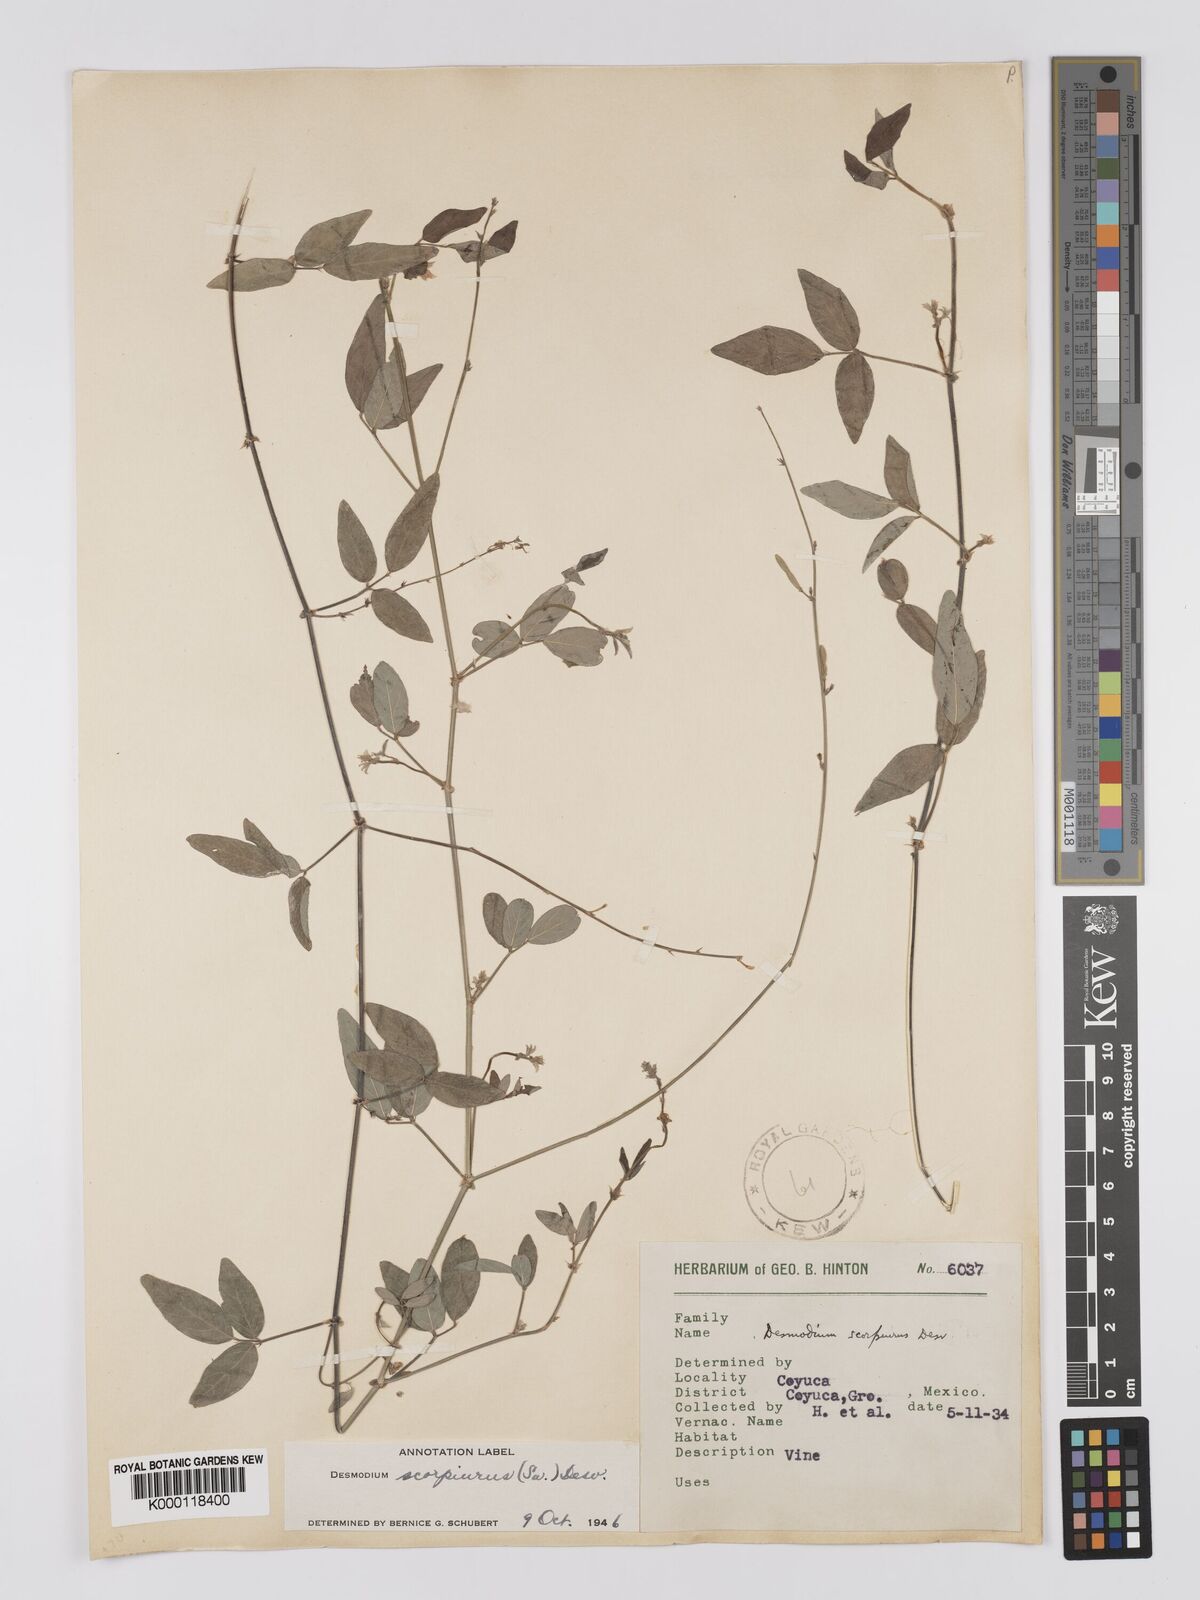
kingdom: Plantae
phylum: Tracheophyta
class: Magnoliopsida
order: Fabales
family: Fabaceae
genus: Desmodium
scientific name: Desmodium
